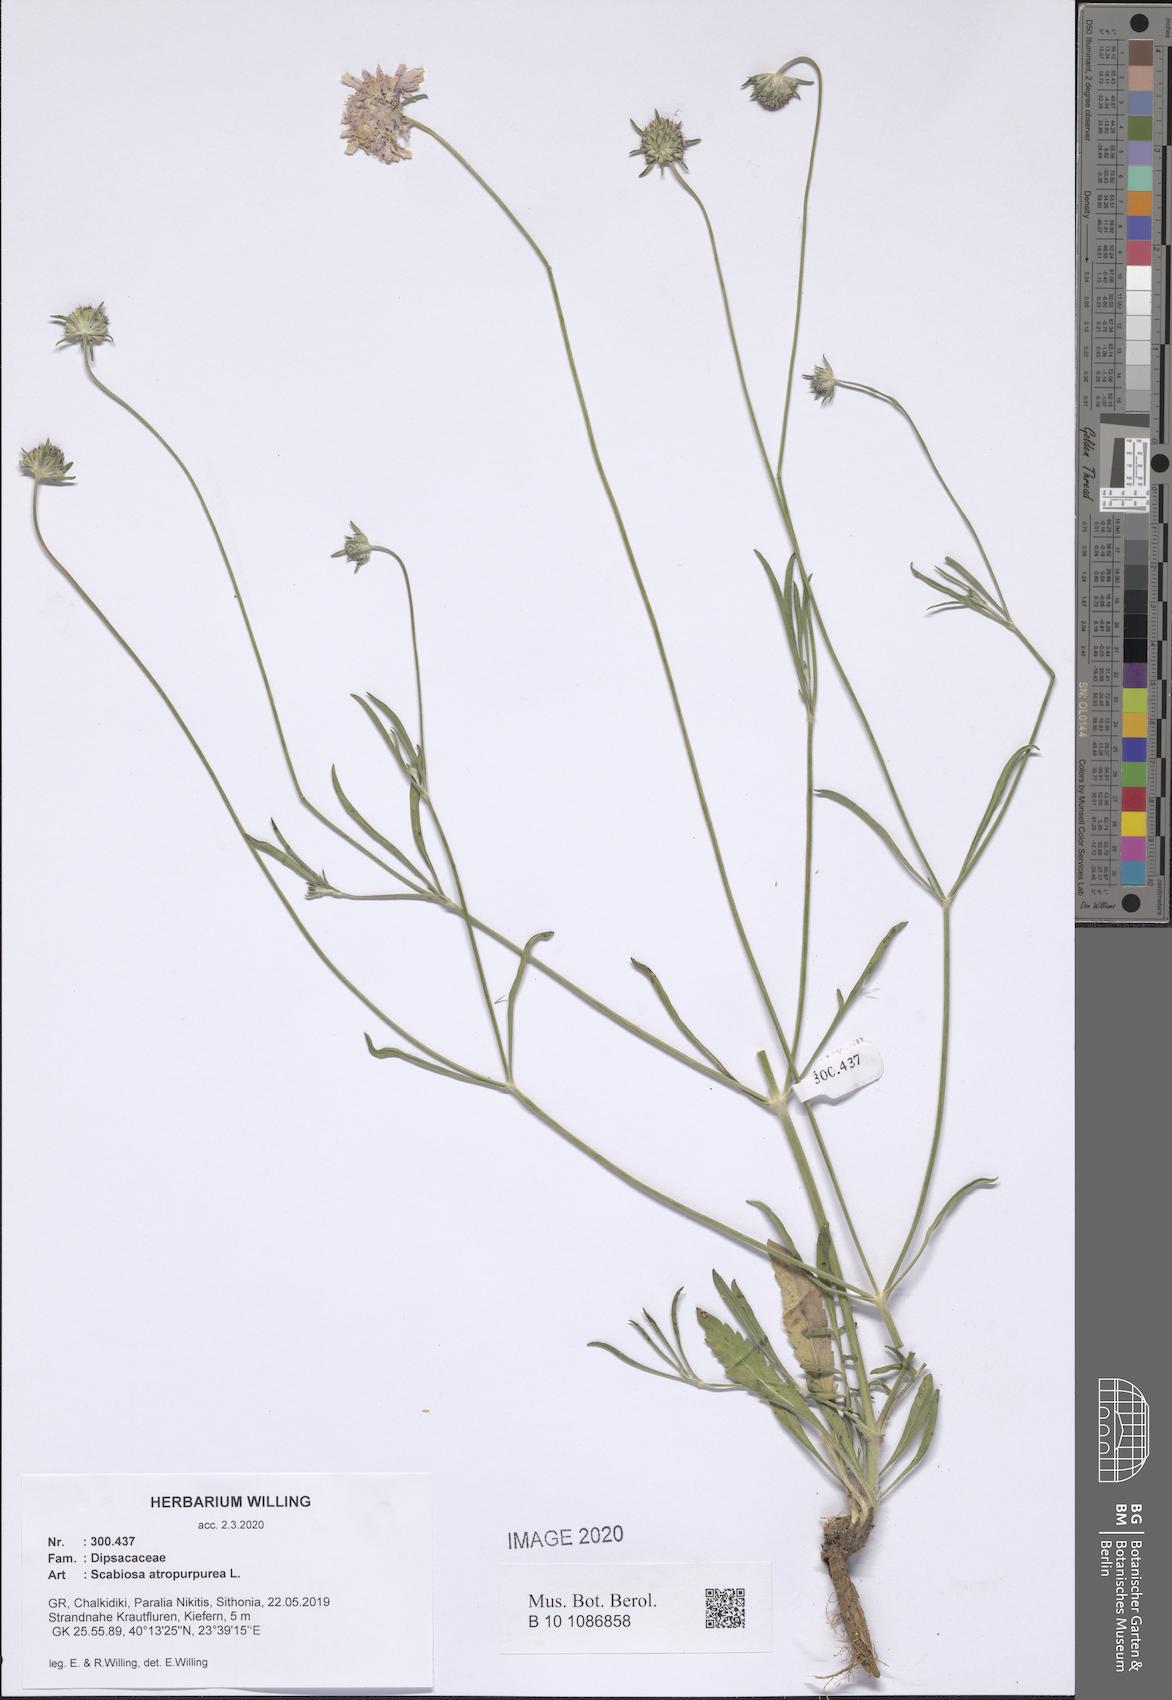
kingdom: Plantae
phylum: Tracheophyta
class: Magnoliopsida
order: Dipsacales
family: Caprifoliaceae
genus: Sixalix
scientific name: Sixalix atropurpurea
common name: Sweet scabious
